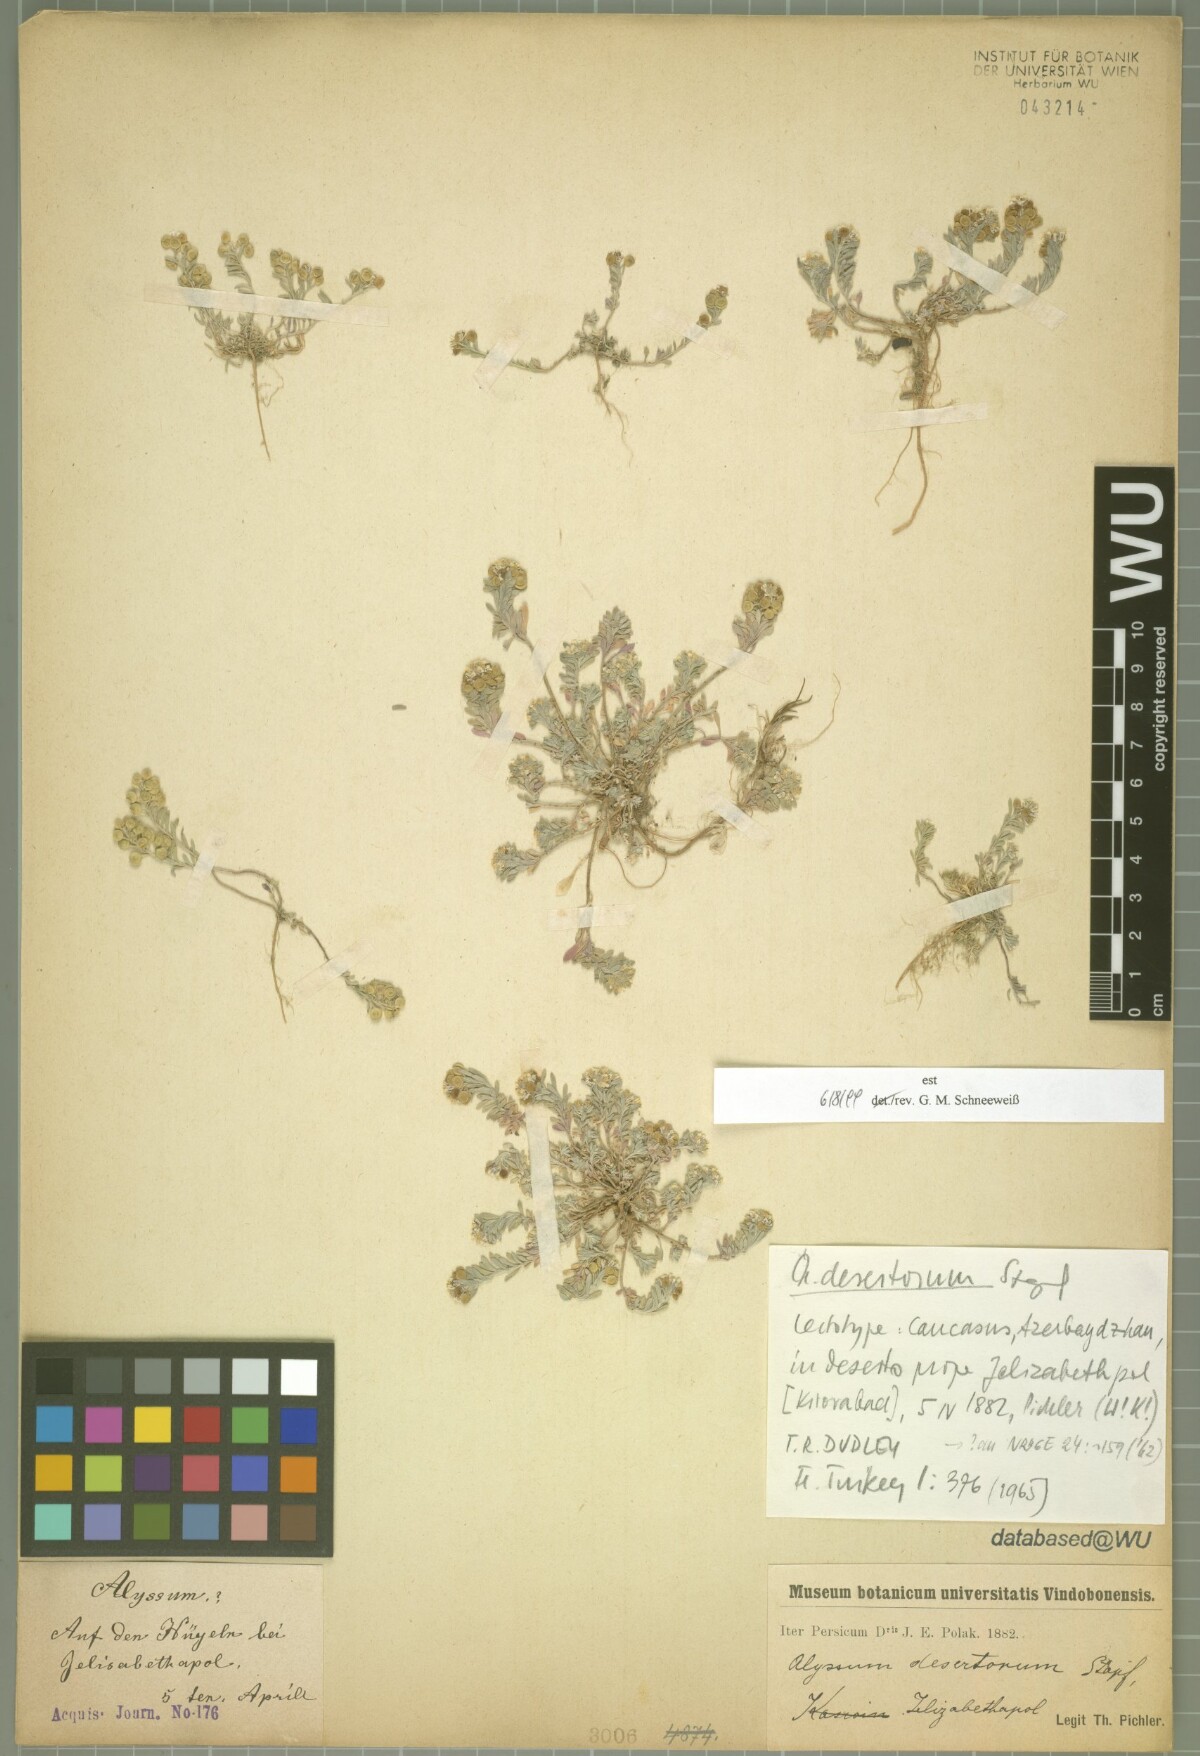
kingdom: Plantae
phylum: Tracheophyta
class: Magnoliopsida
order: Brassicales
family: Brassicaceae
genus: Alyssum
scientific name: Alyssum turkestanicum
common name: Desert alyssum
